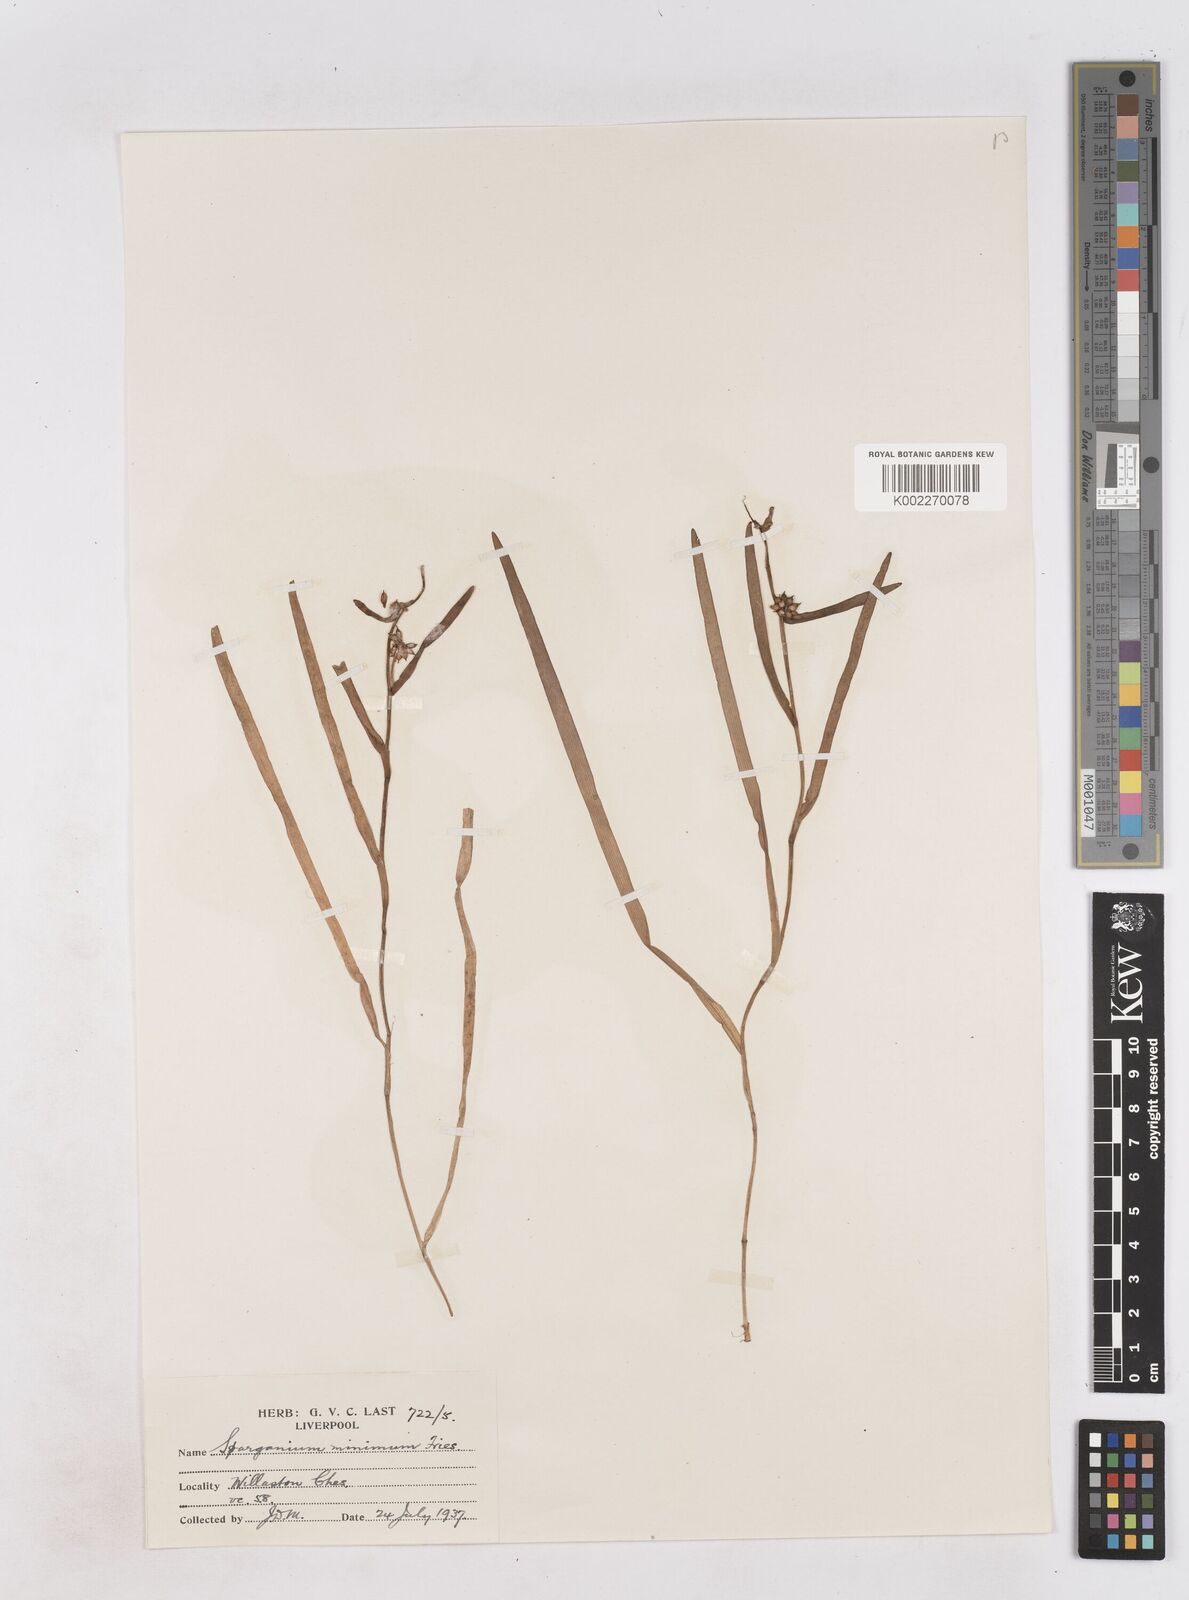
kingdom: Plantae
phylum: Tracheophyta
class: Liliopsida
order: Poales
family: Typhaceae
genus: Sparganium
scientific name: Sparganium natans
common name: Least bur-reed
